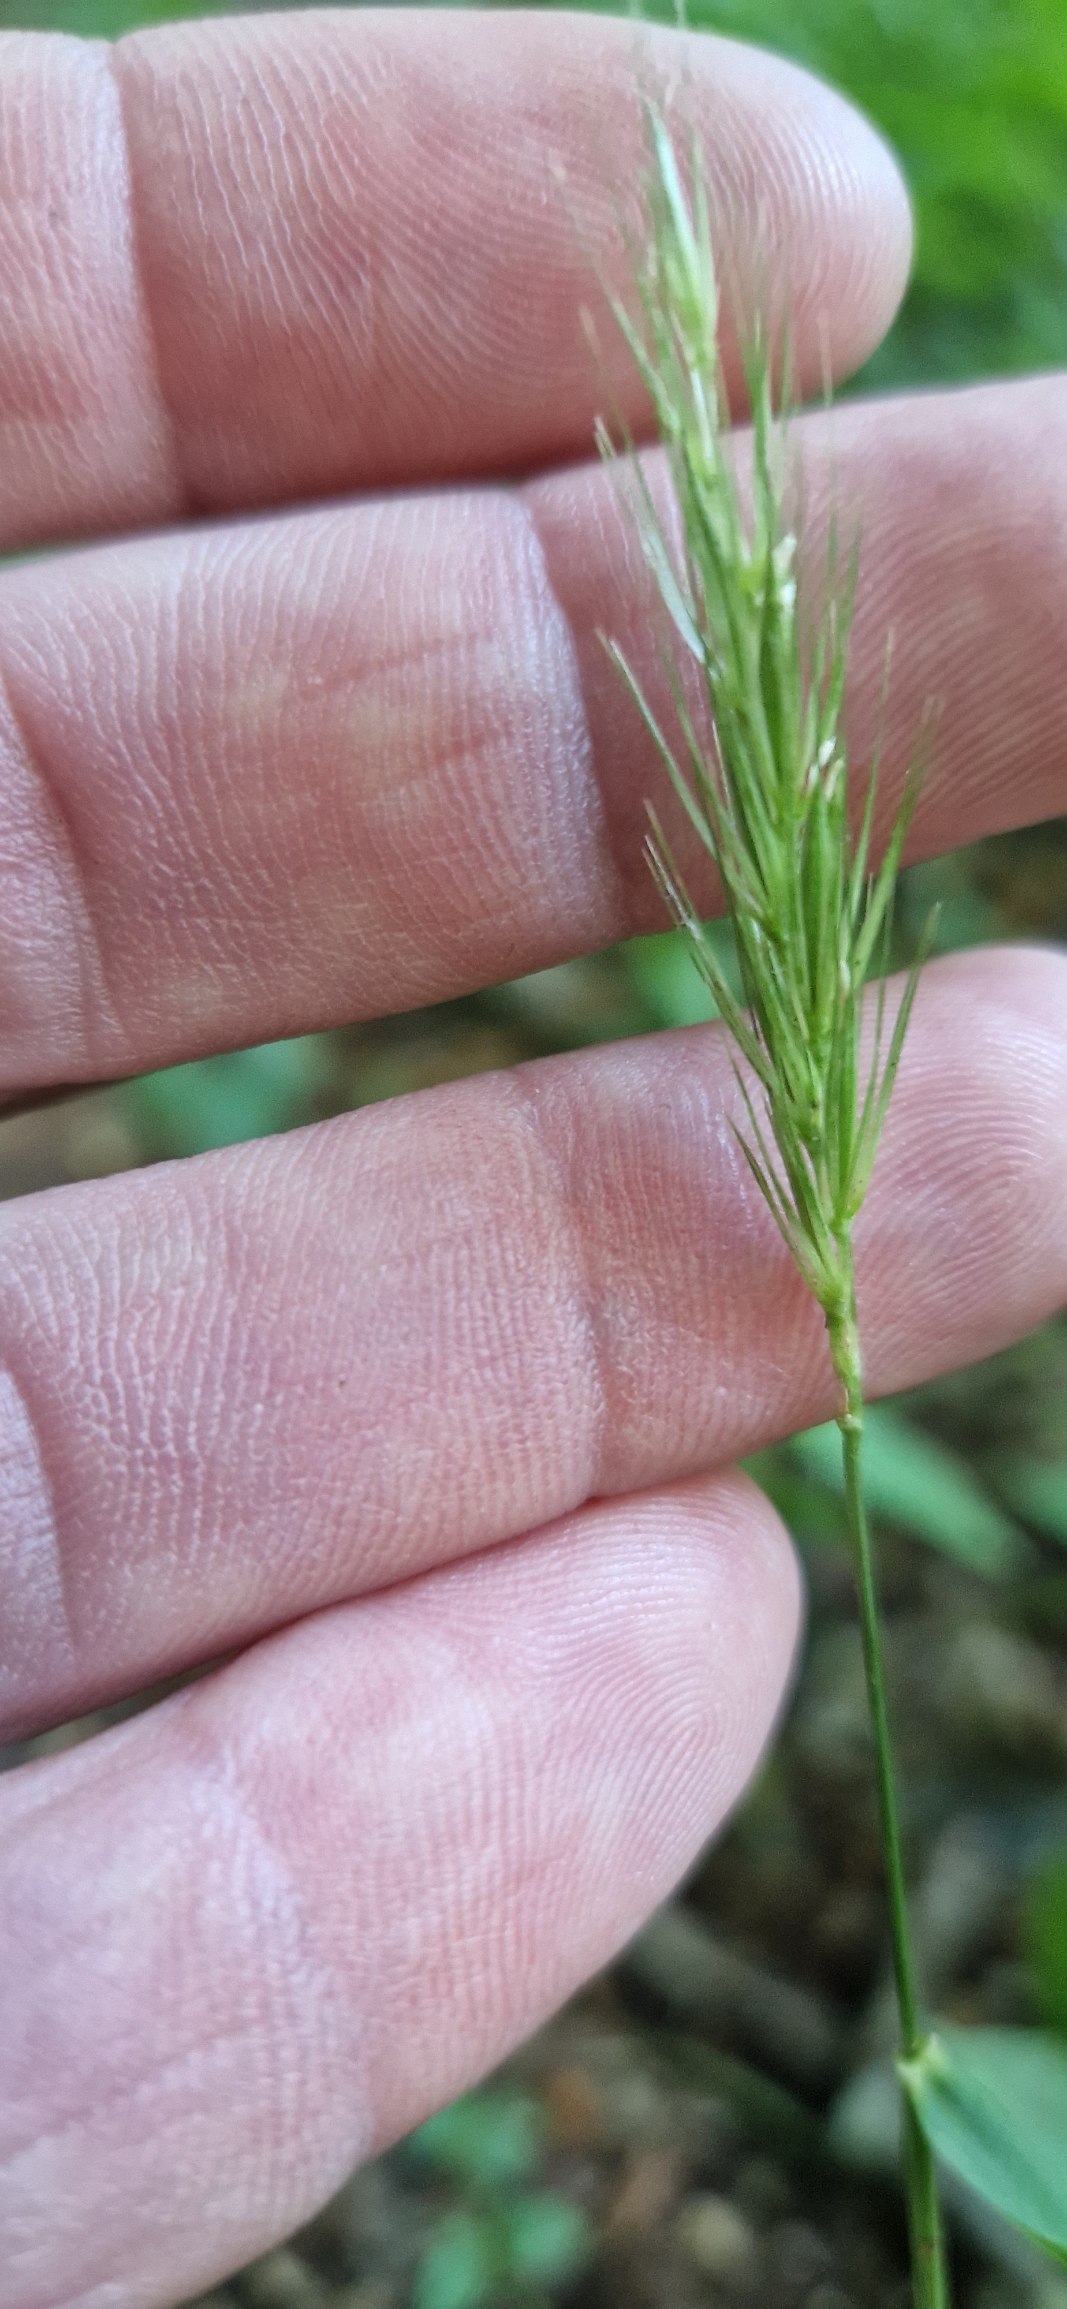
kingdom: Plantae
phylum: Tracheophyta
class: Liliopsida
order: Poales
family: Poaceae
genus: Hordelymus
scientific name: Hordelymus europaeus
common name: Skovbyg
